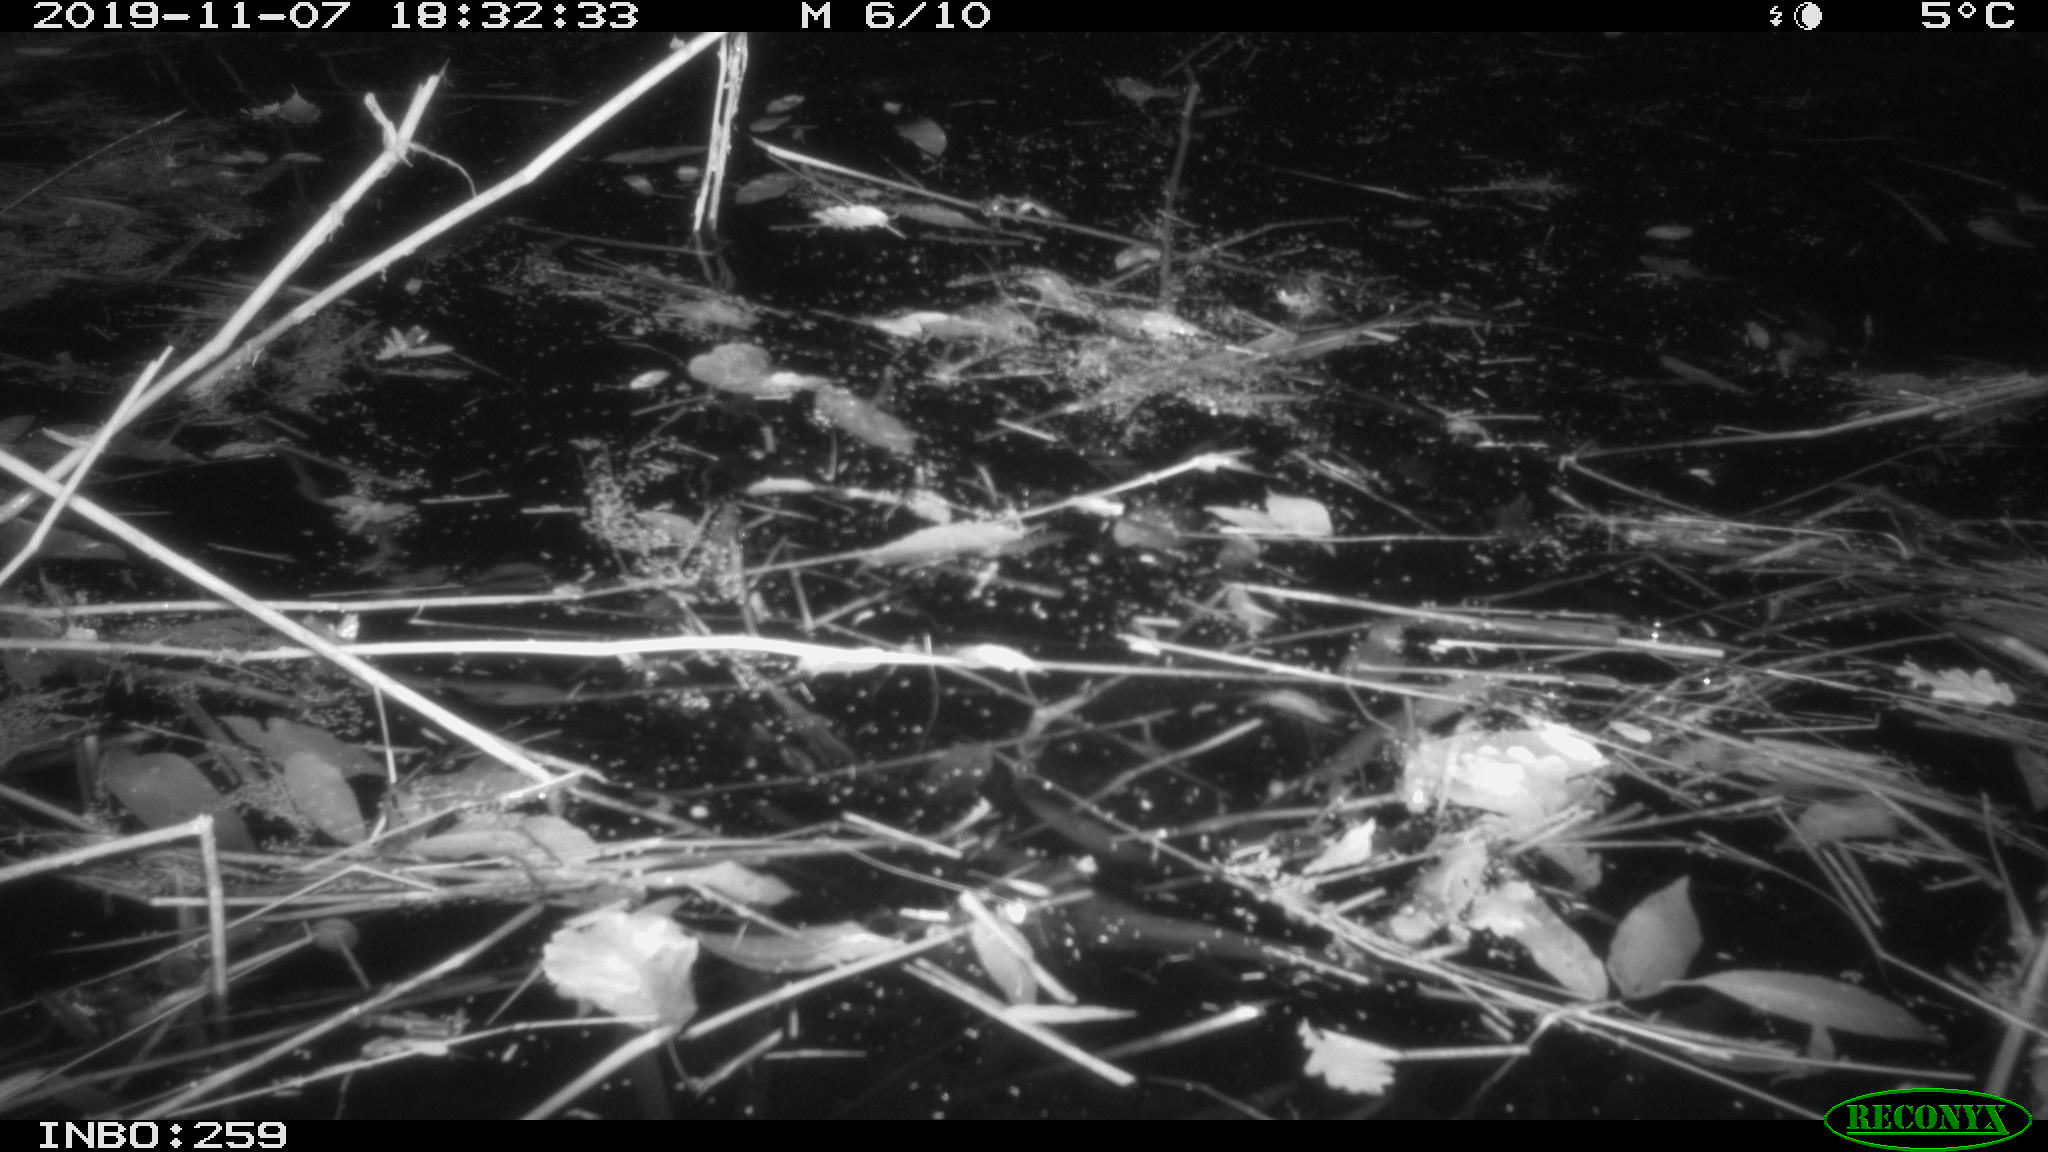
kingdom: Animalia
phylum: Chordata
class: Aves
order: Gruiformes
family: Rallidae
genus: Gallinula
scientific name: Gallinula chloropus
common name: Common moorhen
